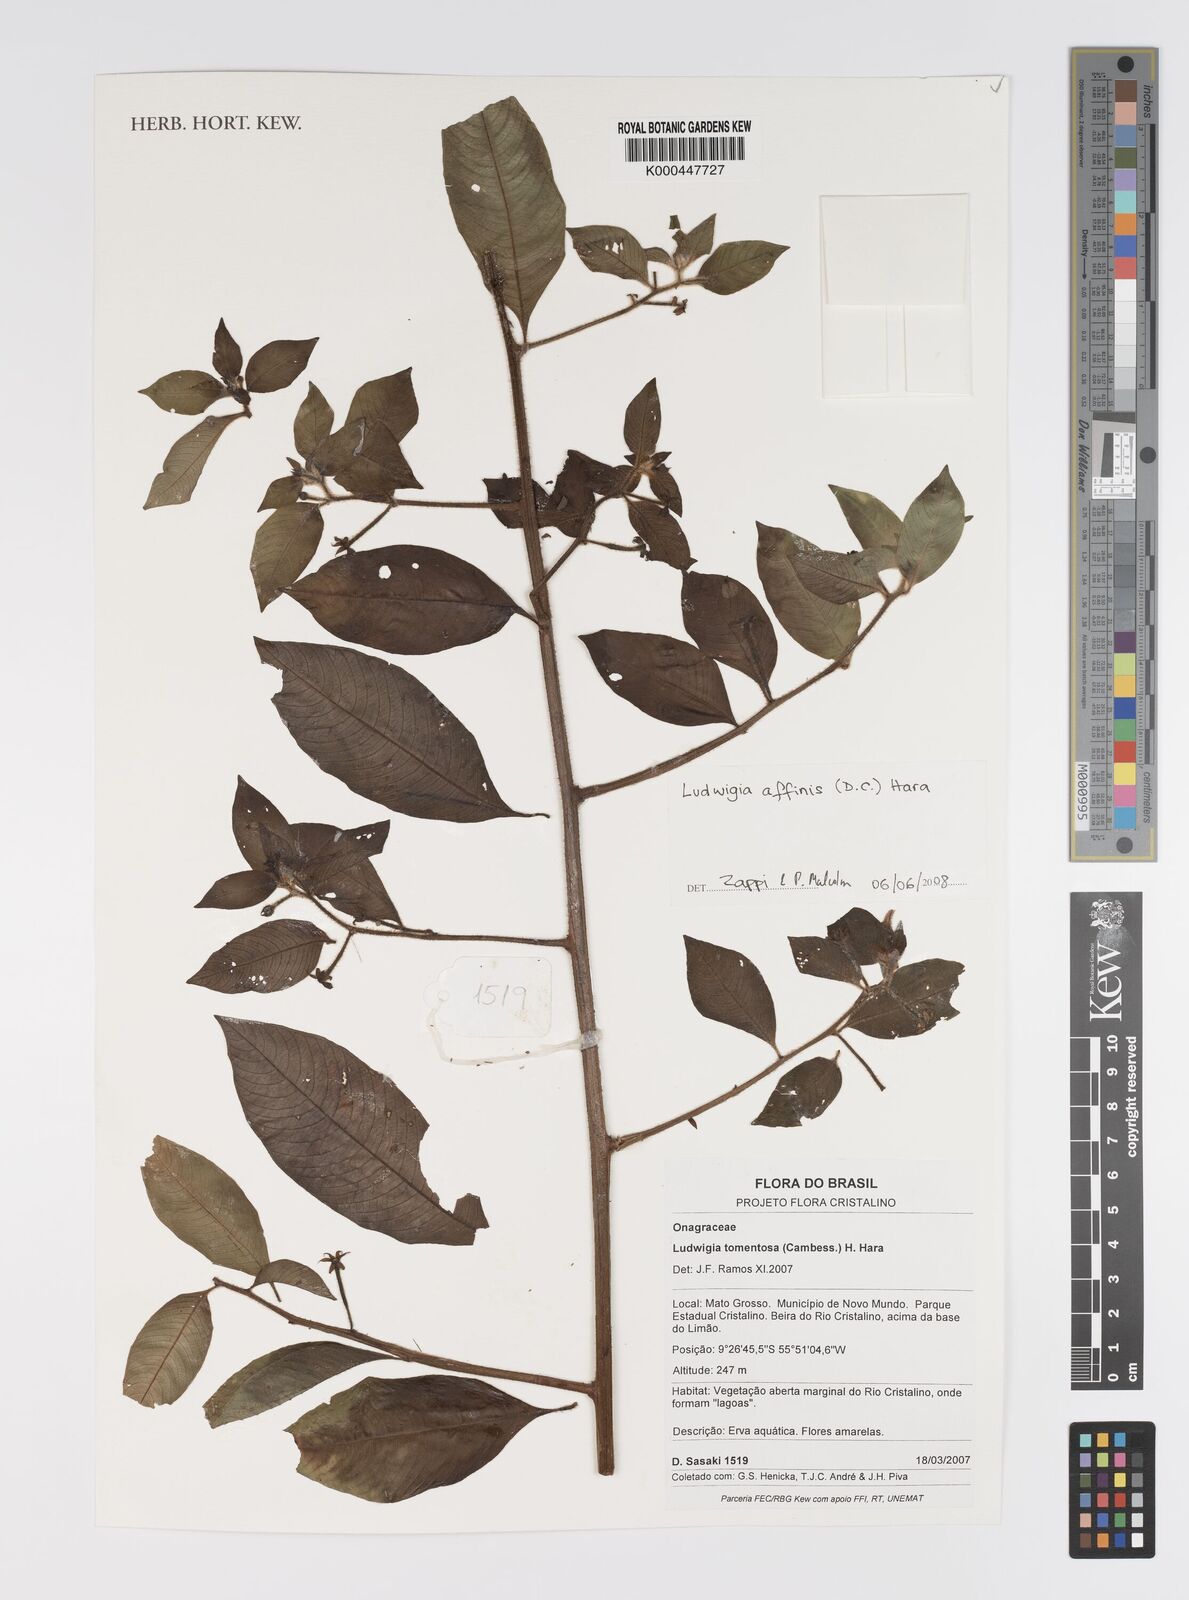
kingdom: Plantae
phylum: Tracheophyta
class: Magnoliopsida
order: Myrtales
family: Onagraceae
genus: Ludwigia
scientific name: Ludwigia affinis
